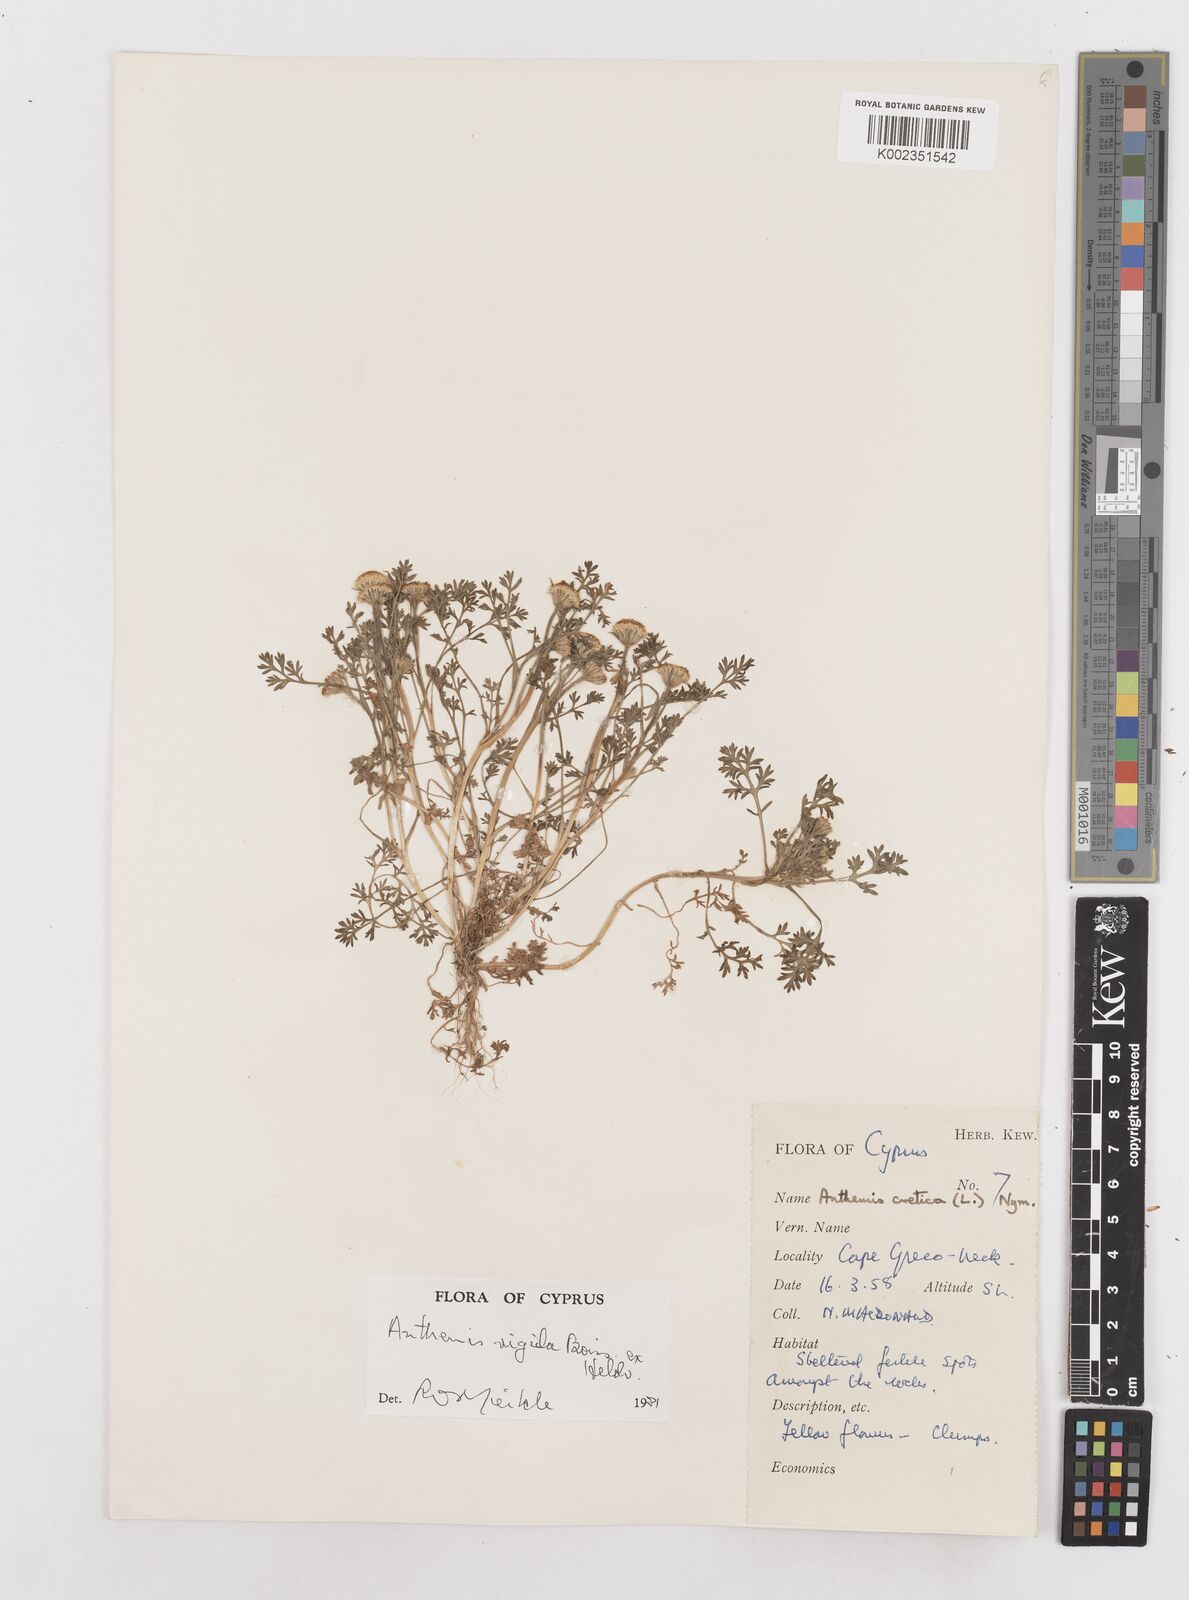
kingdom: Plantae
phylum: Tracheophyta
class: Magnoliopsida
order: Asterales
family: Asteraceae
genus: Anthemis
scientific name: Anthemis rigida
